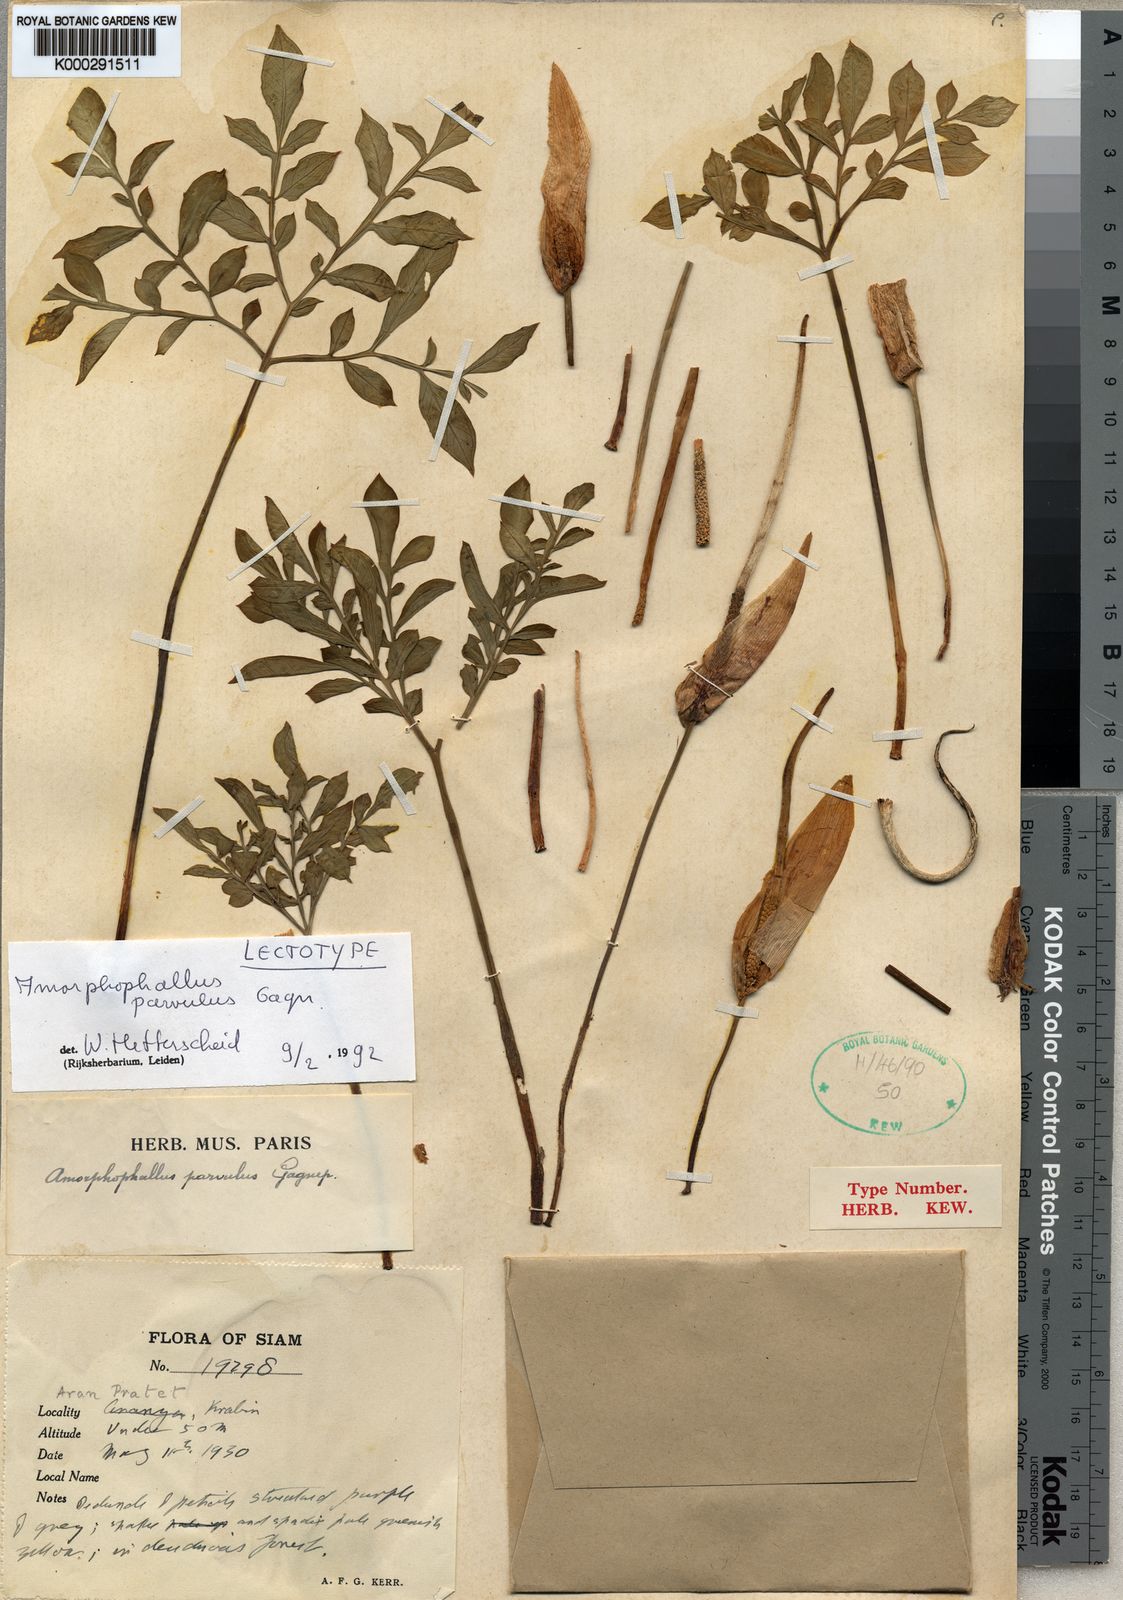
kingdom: Plantae
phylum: Tracheophyta
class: Liliopsida
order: Alismatales
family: Araceae
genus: Amorphophallus
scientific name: Amorphophallus harmandii
